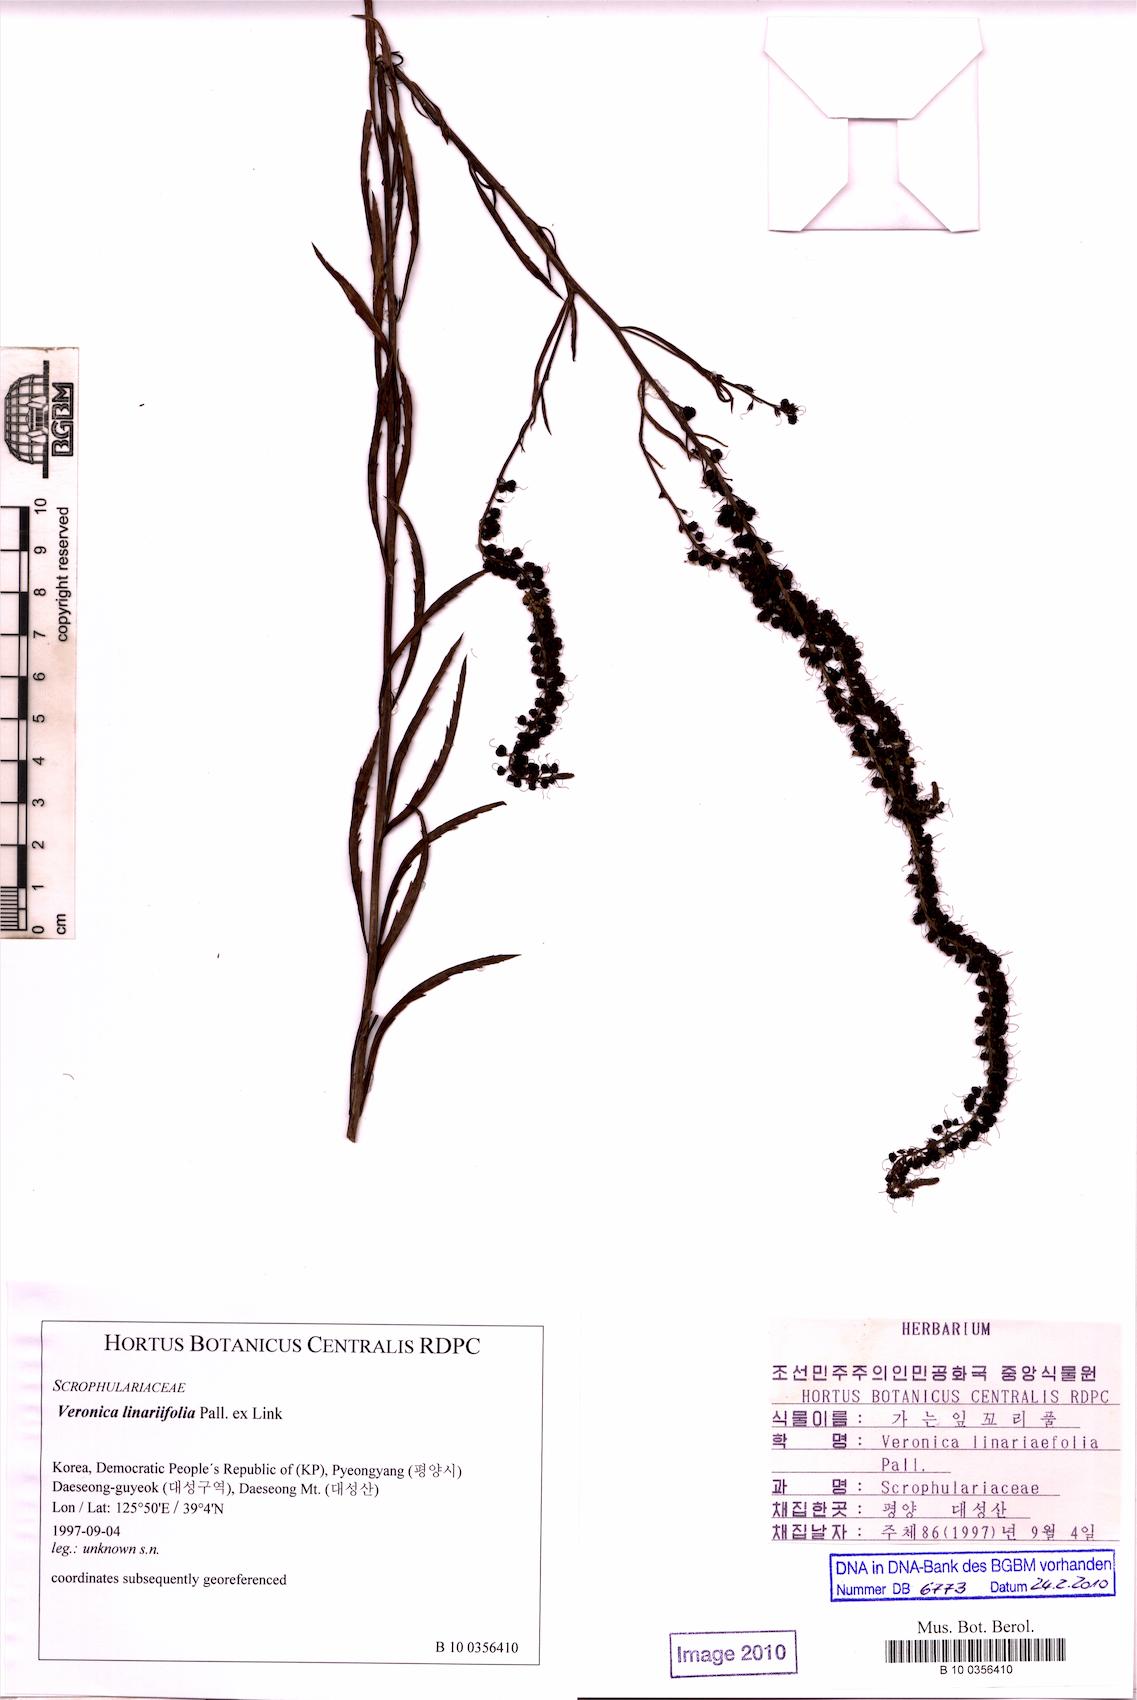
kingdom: Plantae
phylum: Tracheophyta
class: Magnoliopsida
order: Lamiales
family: Plantaginaceae
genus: Veronica
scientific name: Veronica linariifolia
